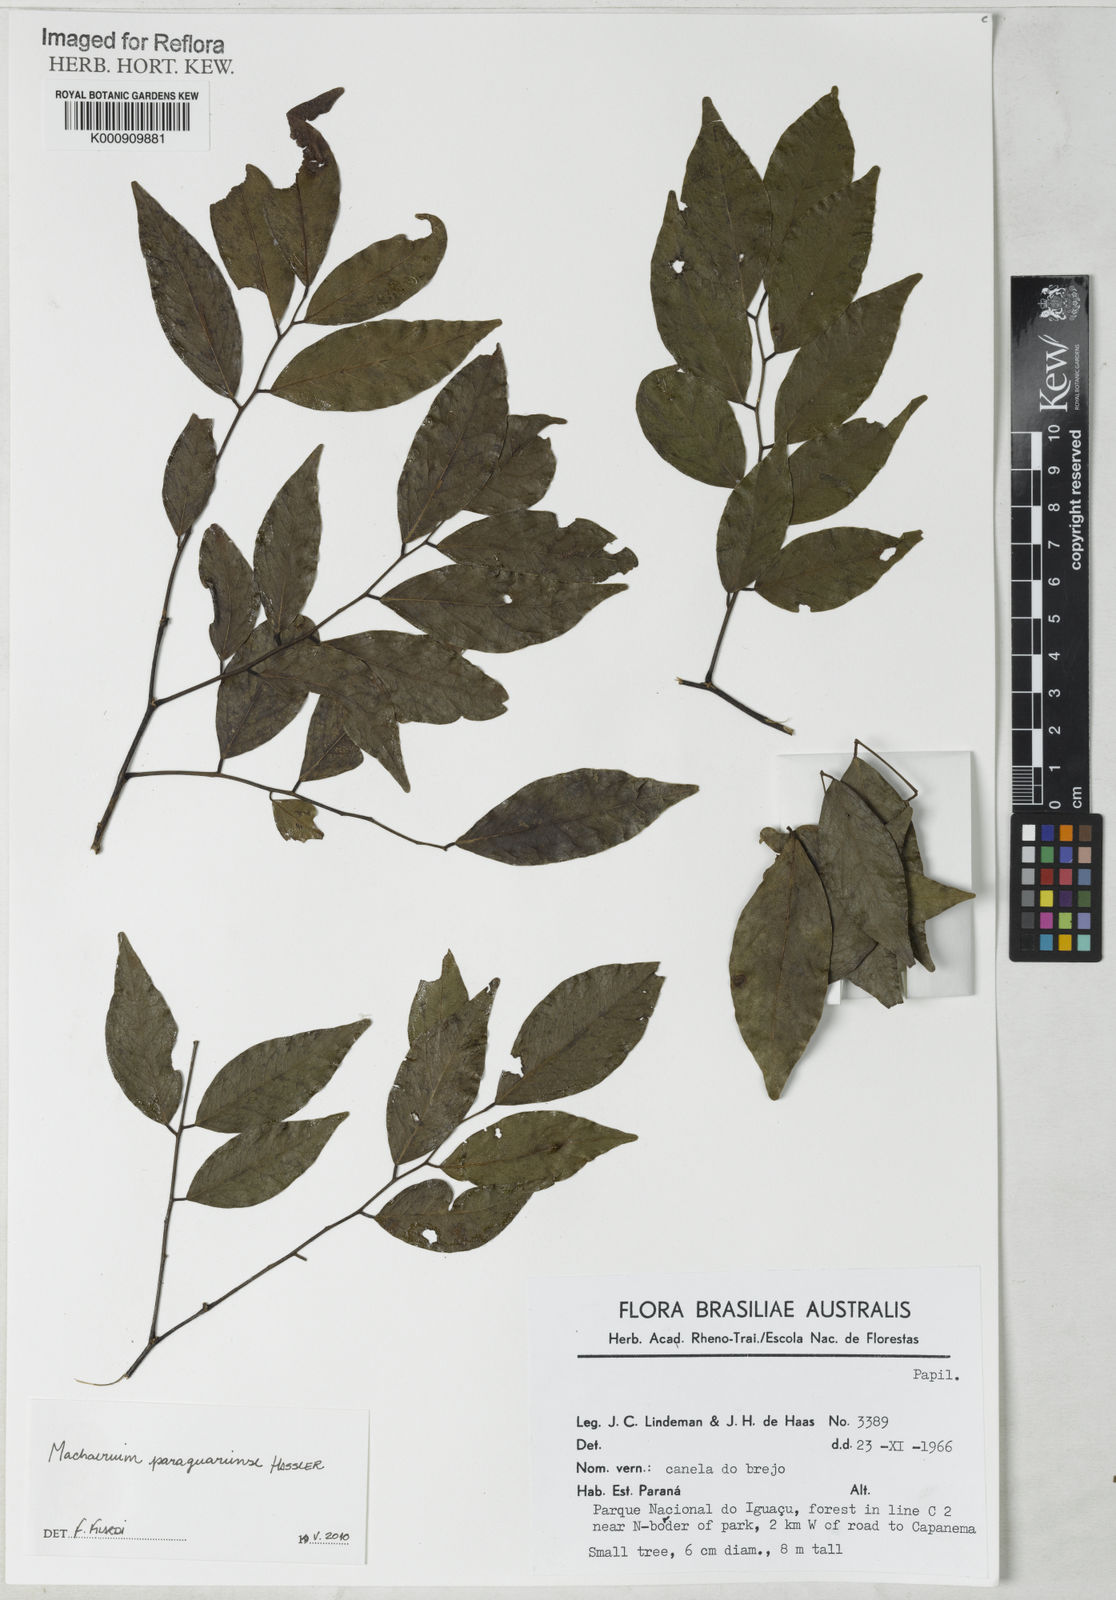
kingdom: Plantae
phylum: Tracheophyta
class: Magnoliopsida
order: Fabales
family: Fabaceae
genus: Machaerium
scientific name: Machaerium oblongifolium
